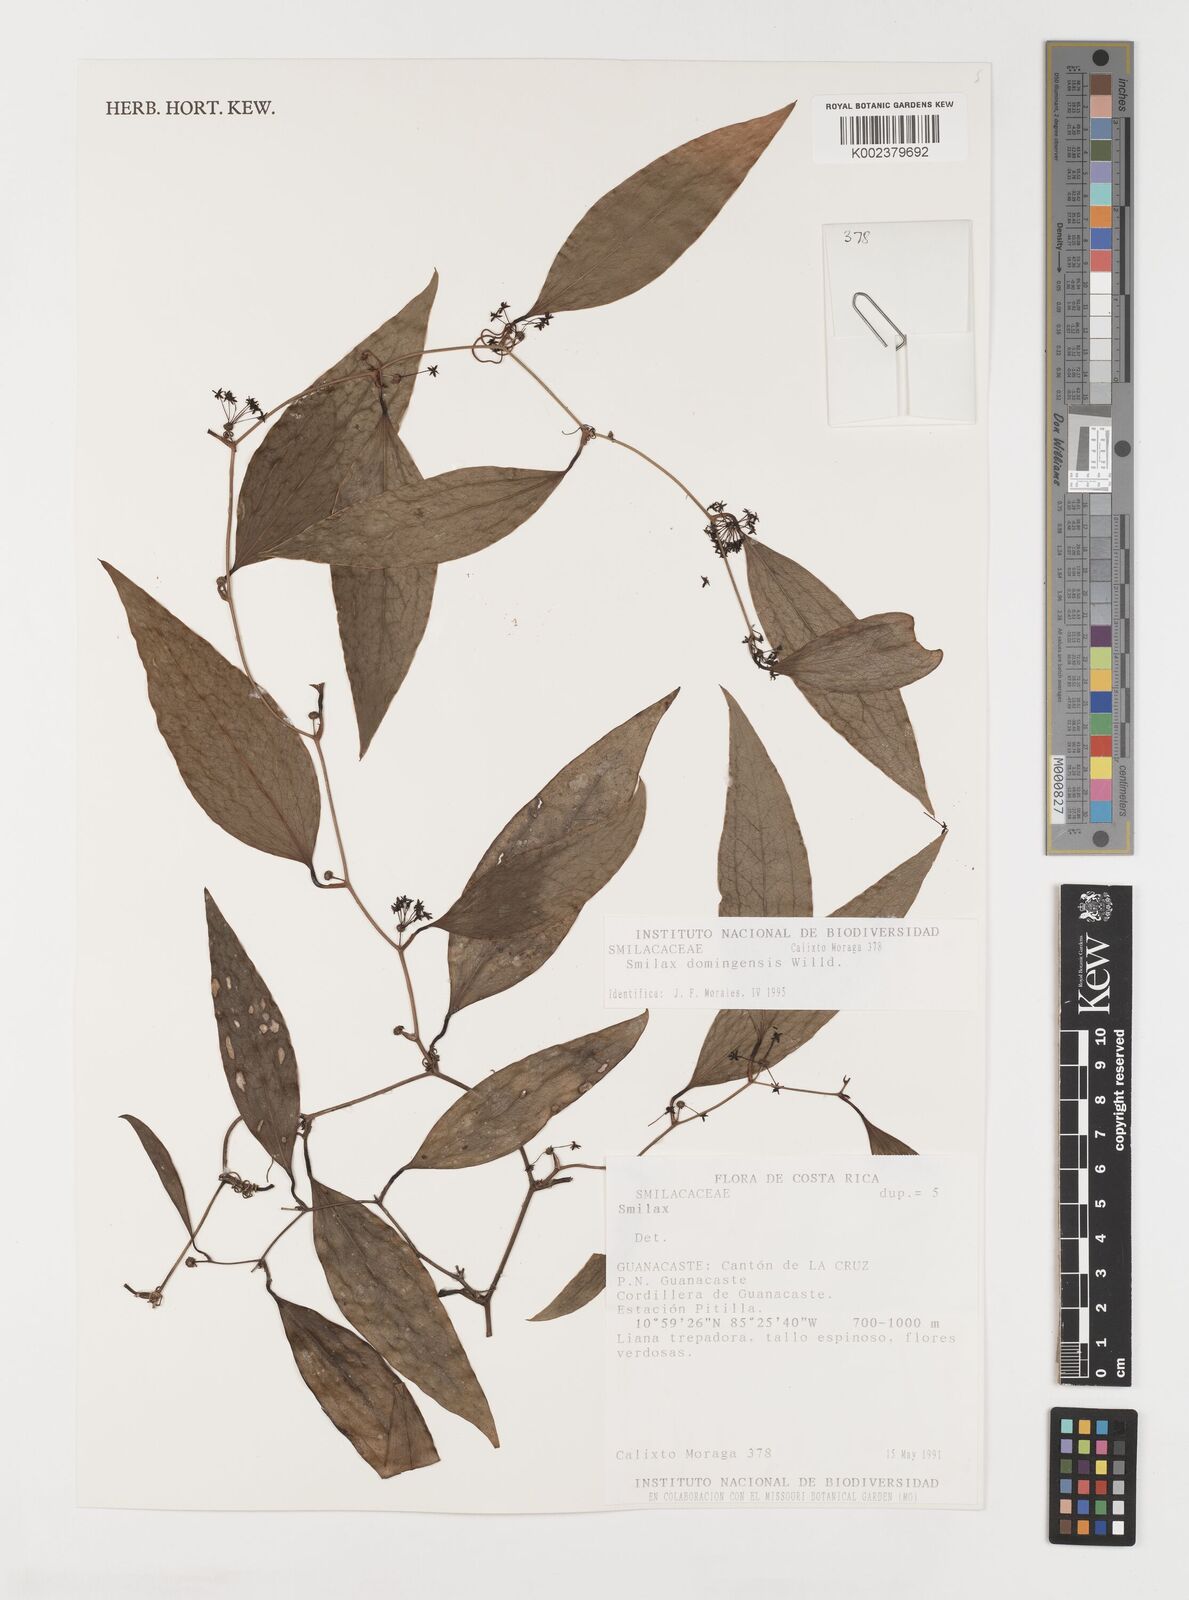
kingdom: Plantae
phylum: Tracheophyta
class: Liliopsida
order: Liliales
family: Smilacaceae
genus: Smilax
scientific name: Smilax domingensis
